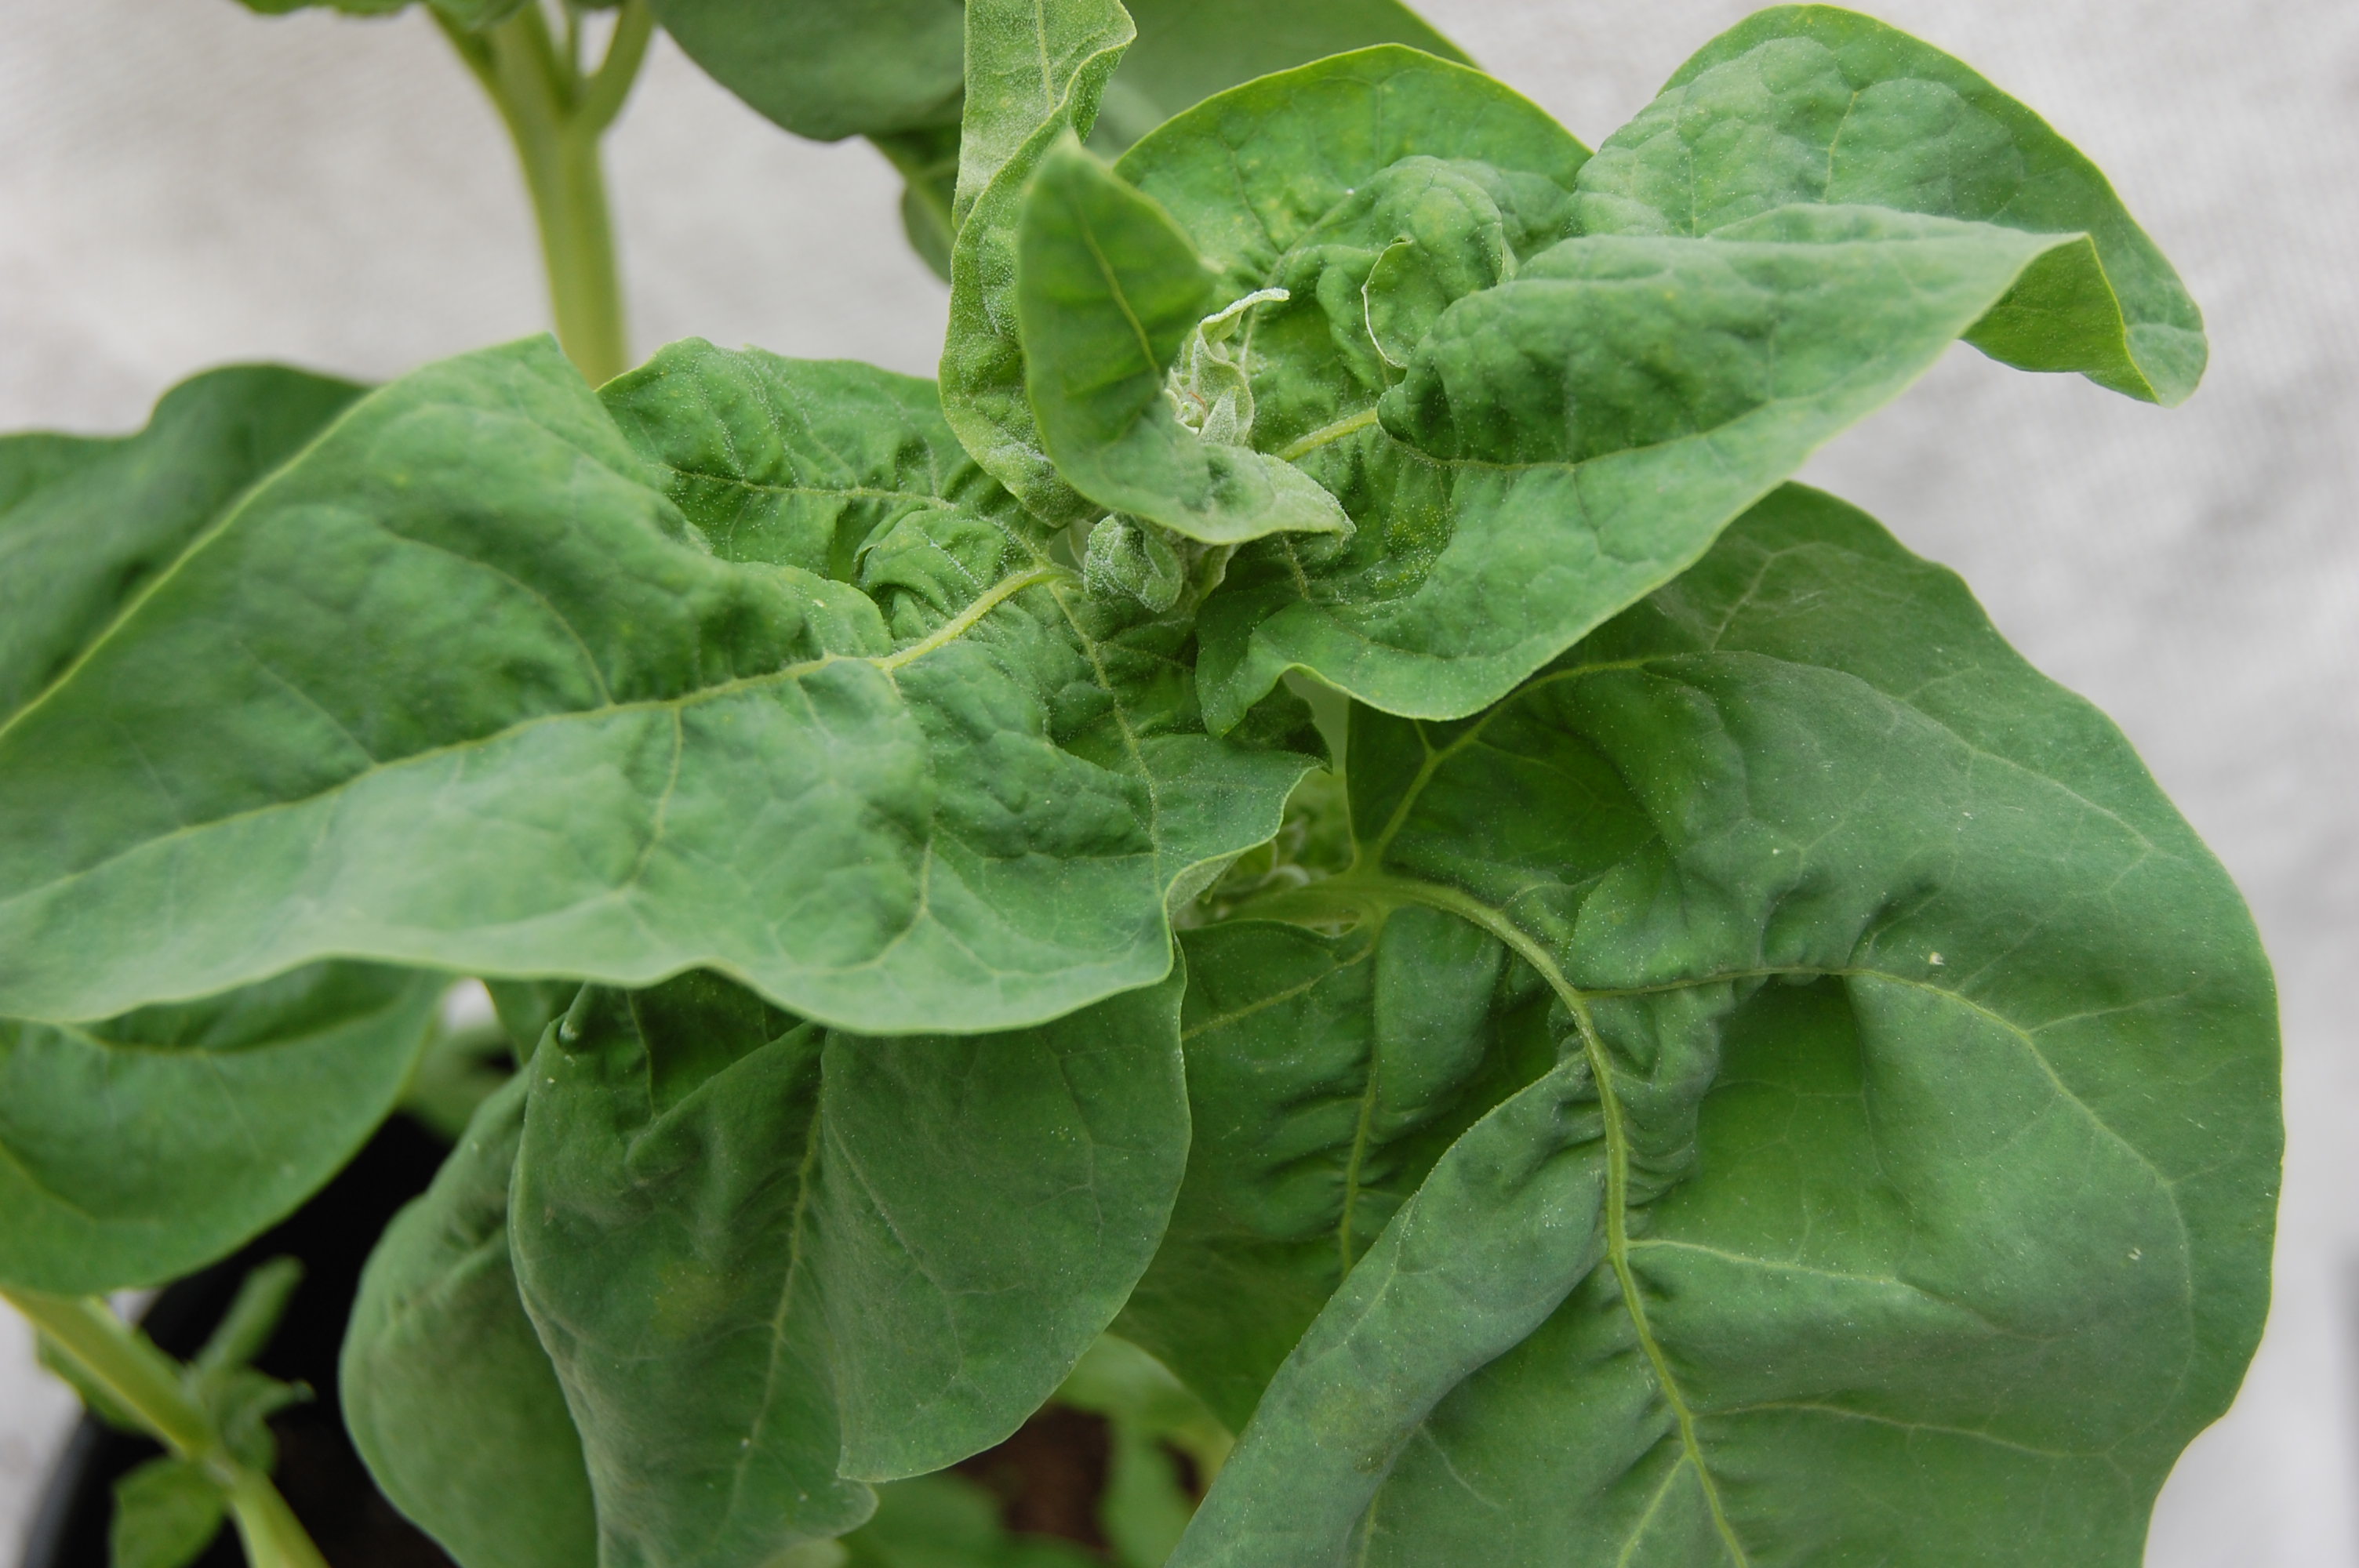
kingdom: Plantae
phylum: Tracheophyta
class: Magnoliopsida
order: Caryophyllales
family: Amaranthaceae
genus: Atriplex
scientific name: Atriplex hortensis
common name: Garden orache
